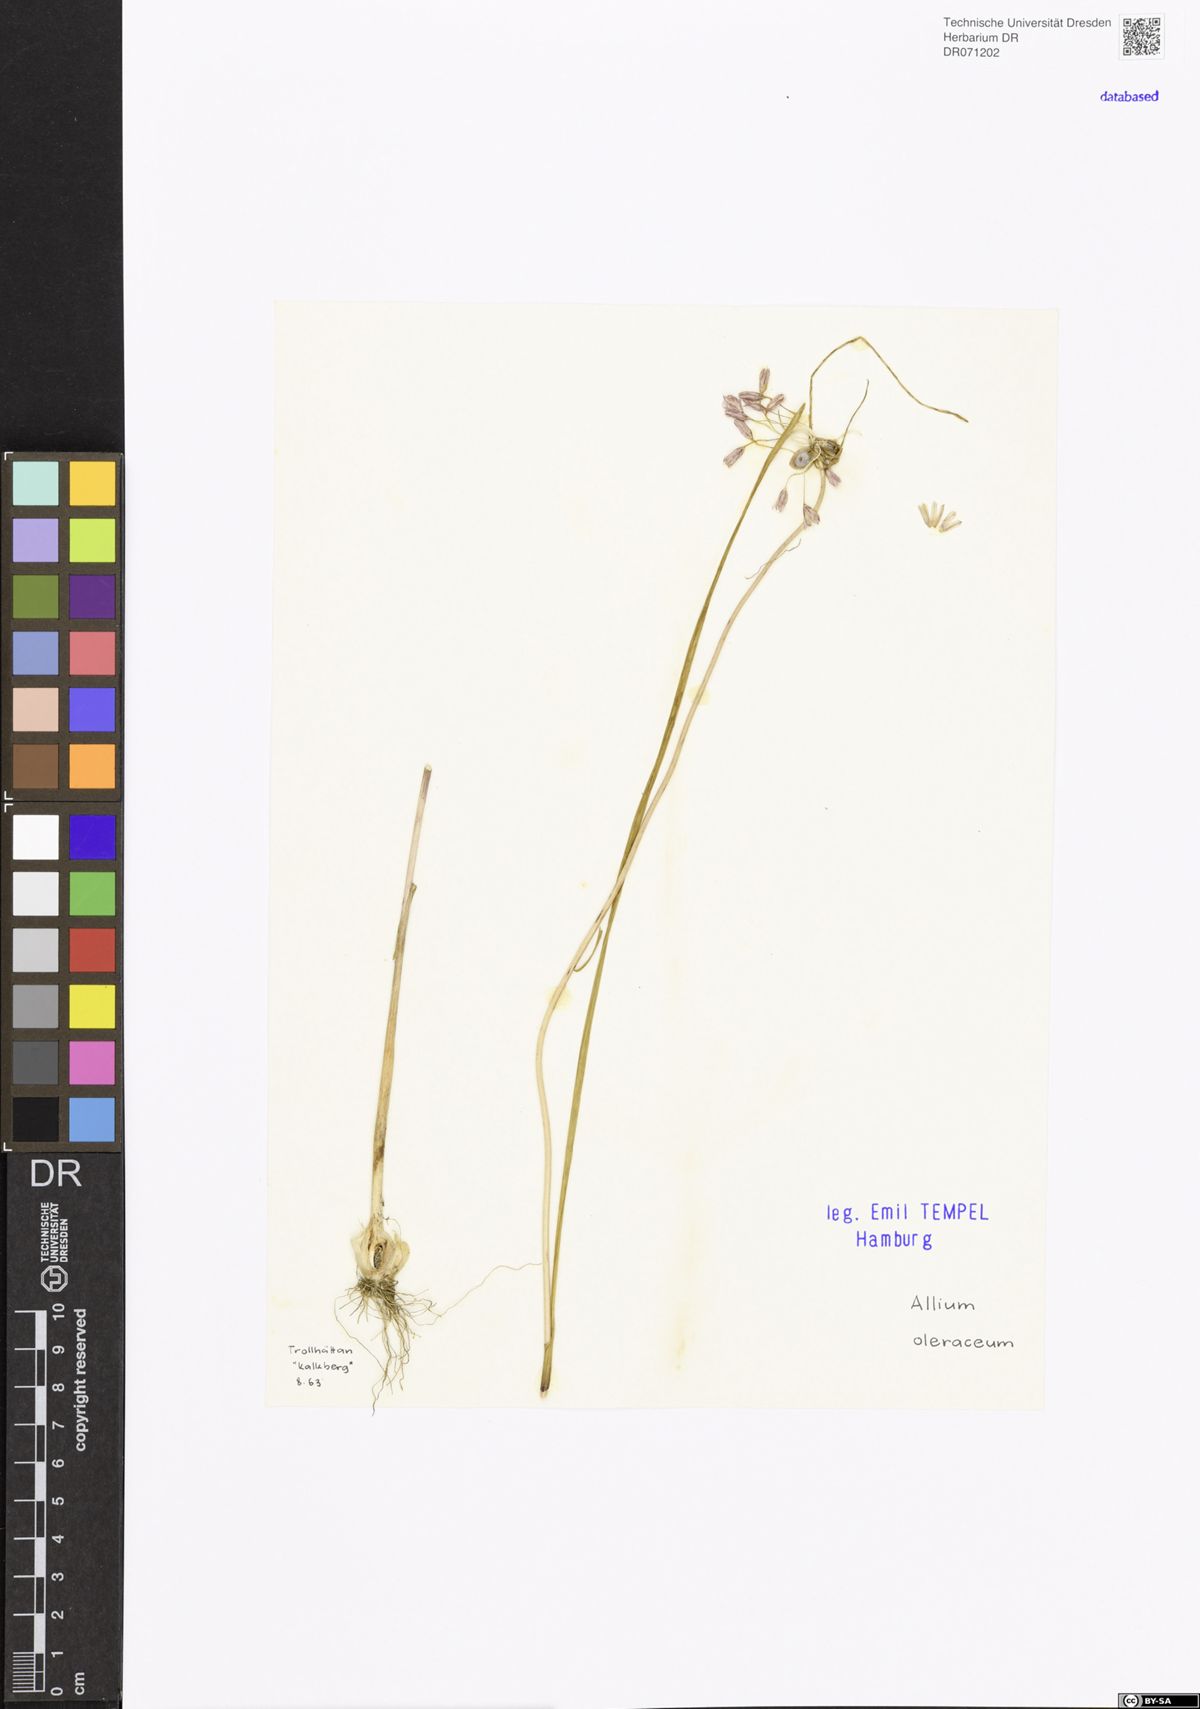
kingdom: Plantae
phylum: Tracheophyta
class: Liliopsida
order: Asparagales
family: Amaryllidaceae
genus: Allium
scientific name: Allium oleraceum
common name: Field garlic
